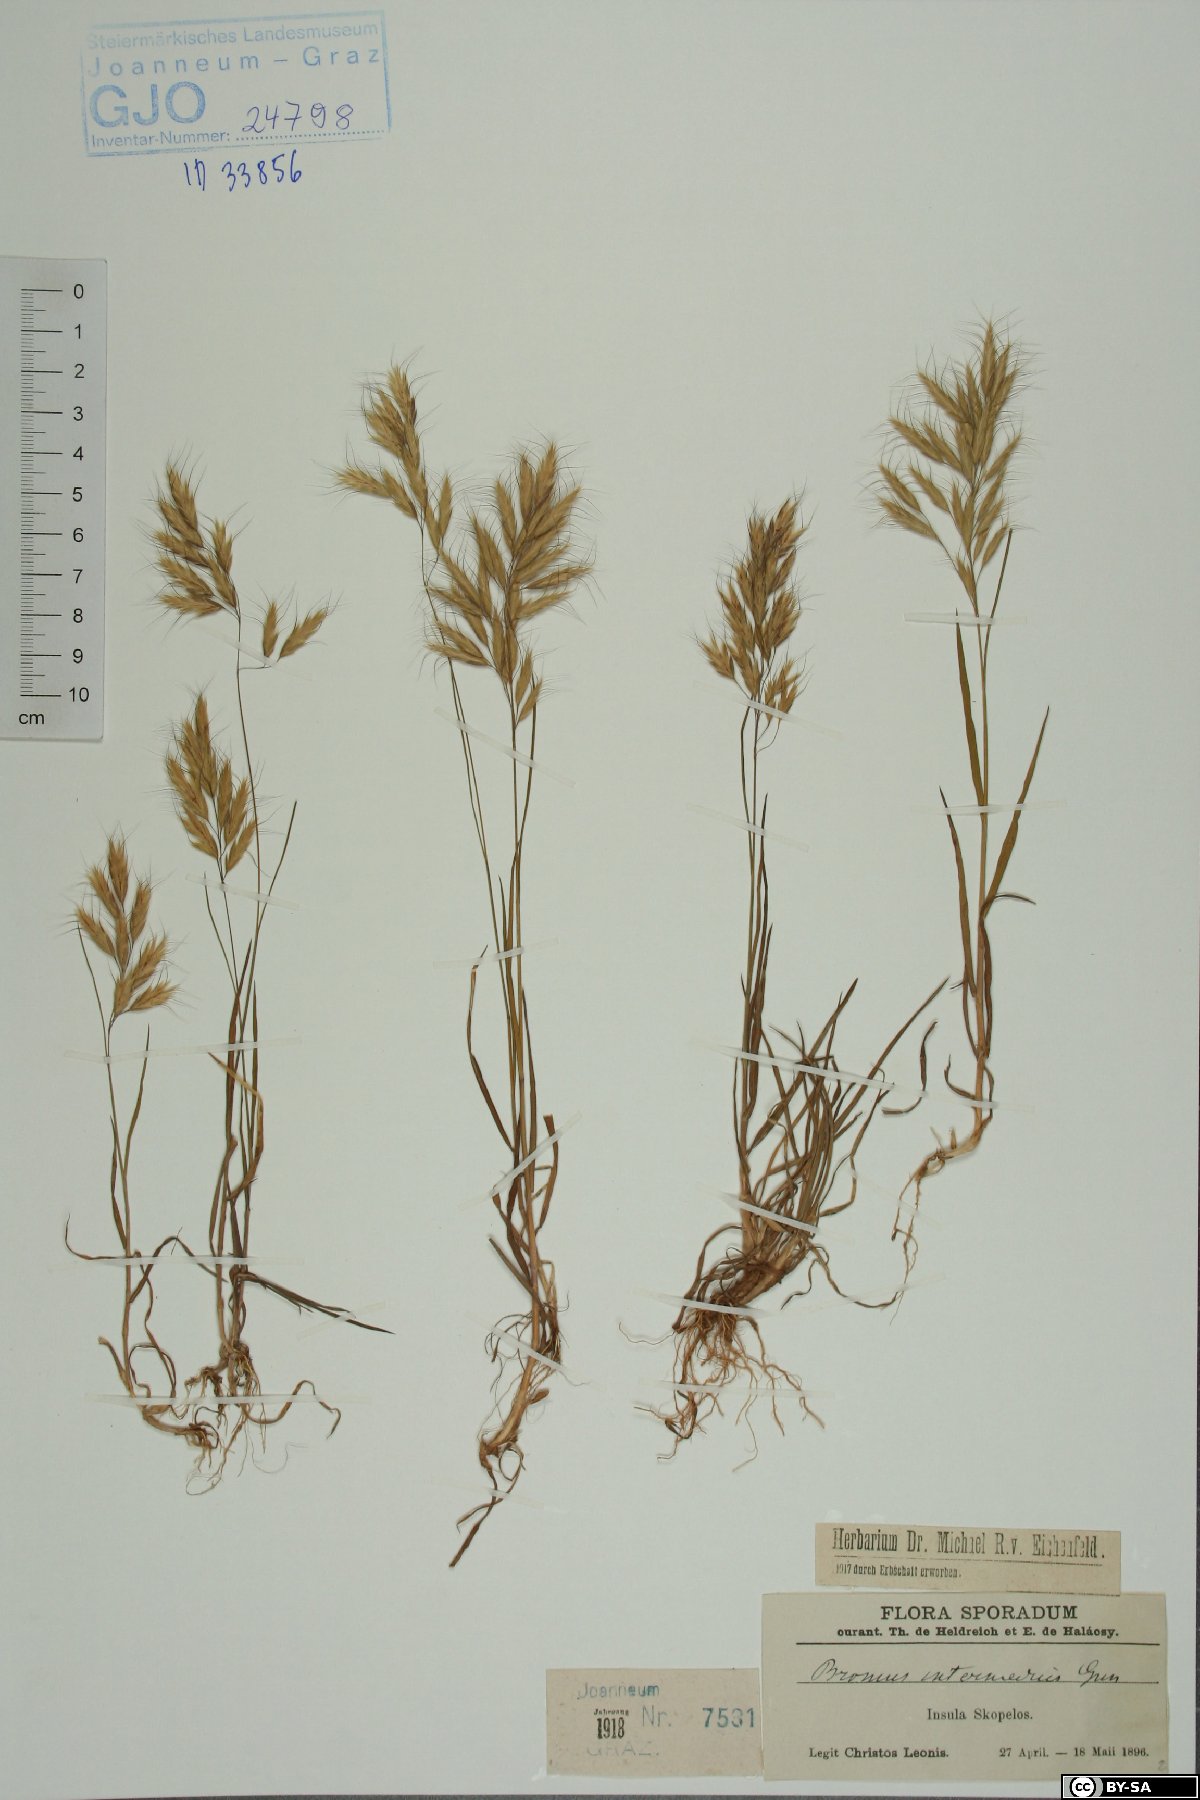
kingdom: Plantae
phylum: Tracheophyta
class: Liliopsida
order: Poales
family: Poaceae
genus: Bromus
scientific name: Bromus intermedius
